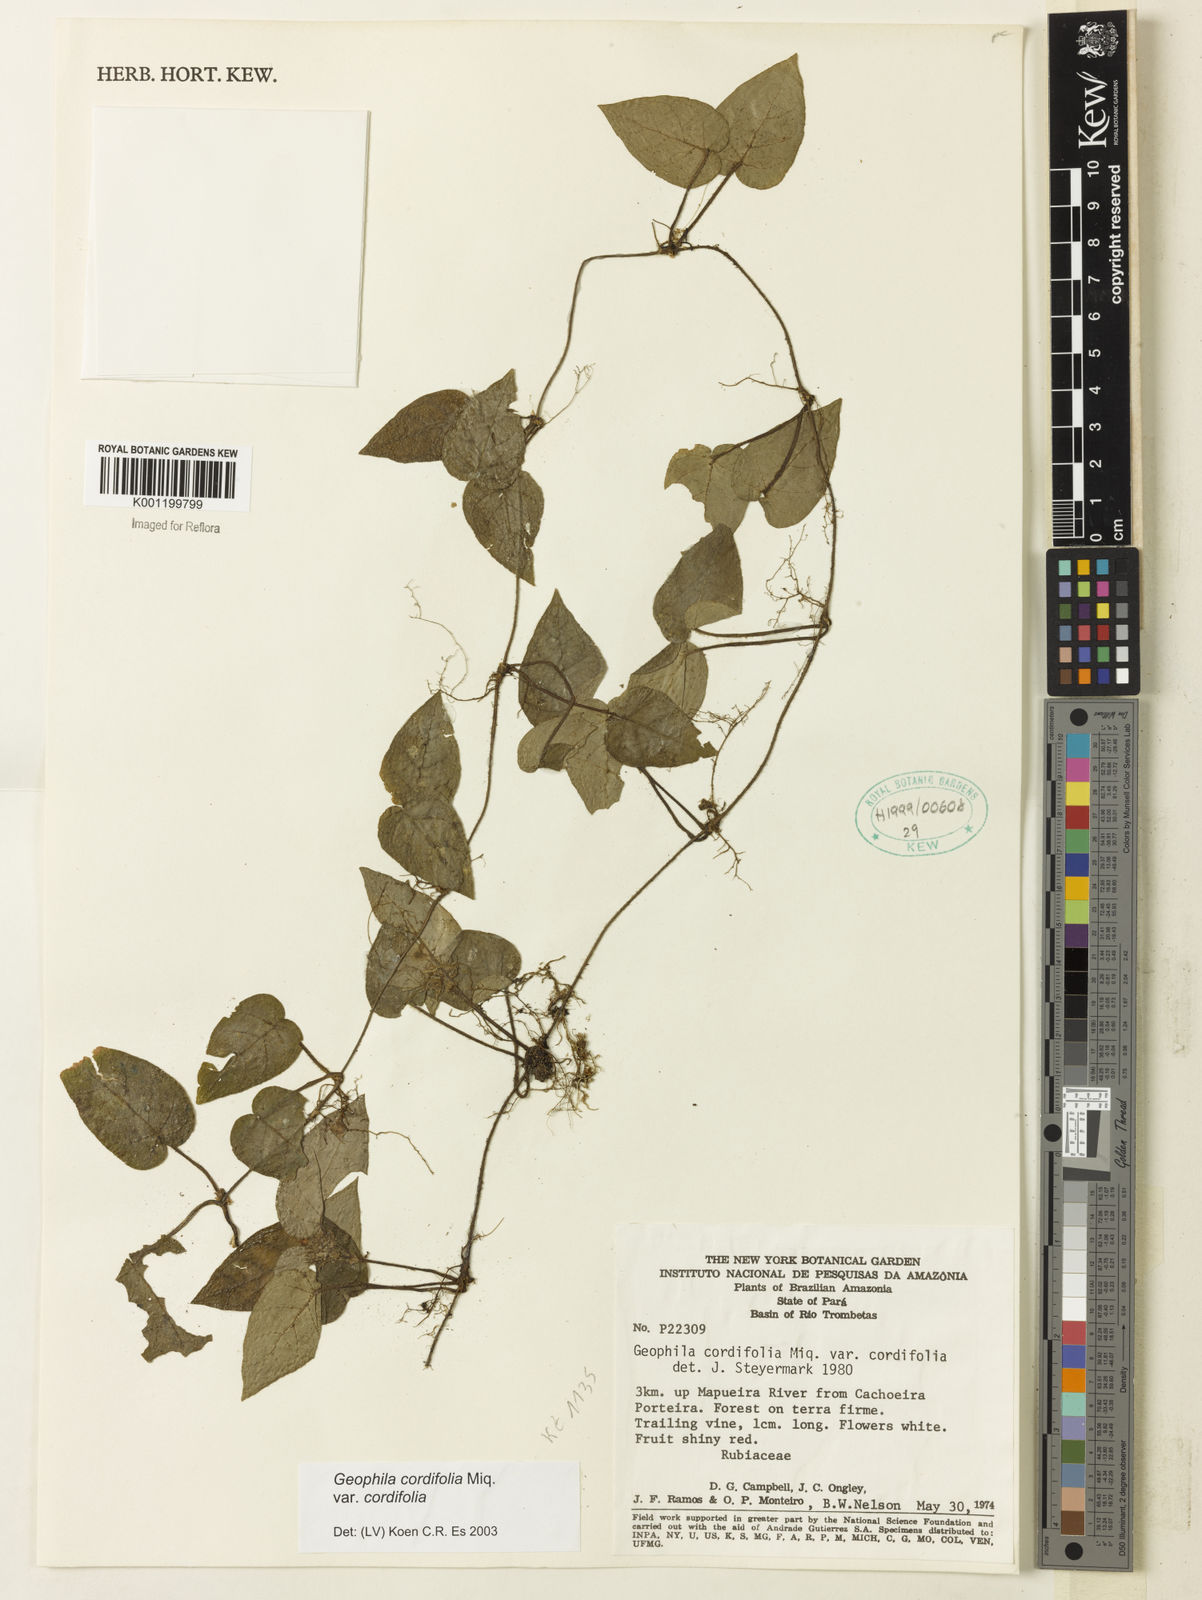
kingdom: Plantae
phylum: Tracheophyta
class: Magnoliopsida
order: Gentianales
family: Rubiaceae
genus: Geophila
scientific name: Geophila cordifolia
